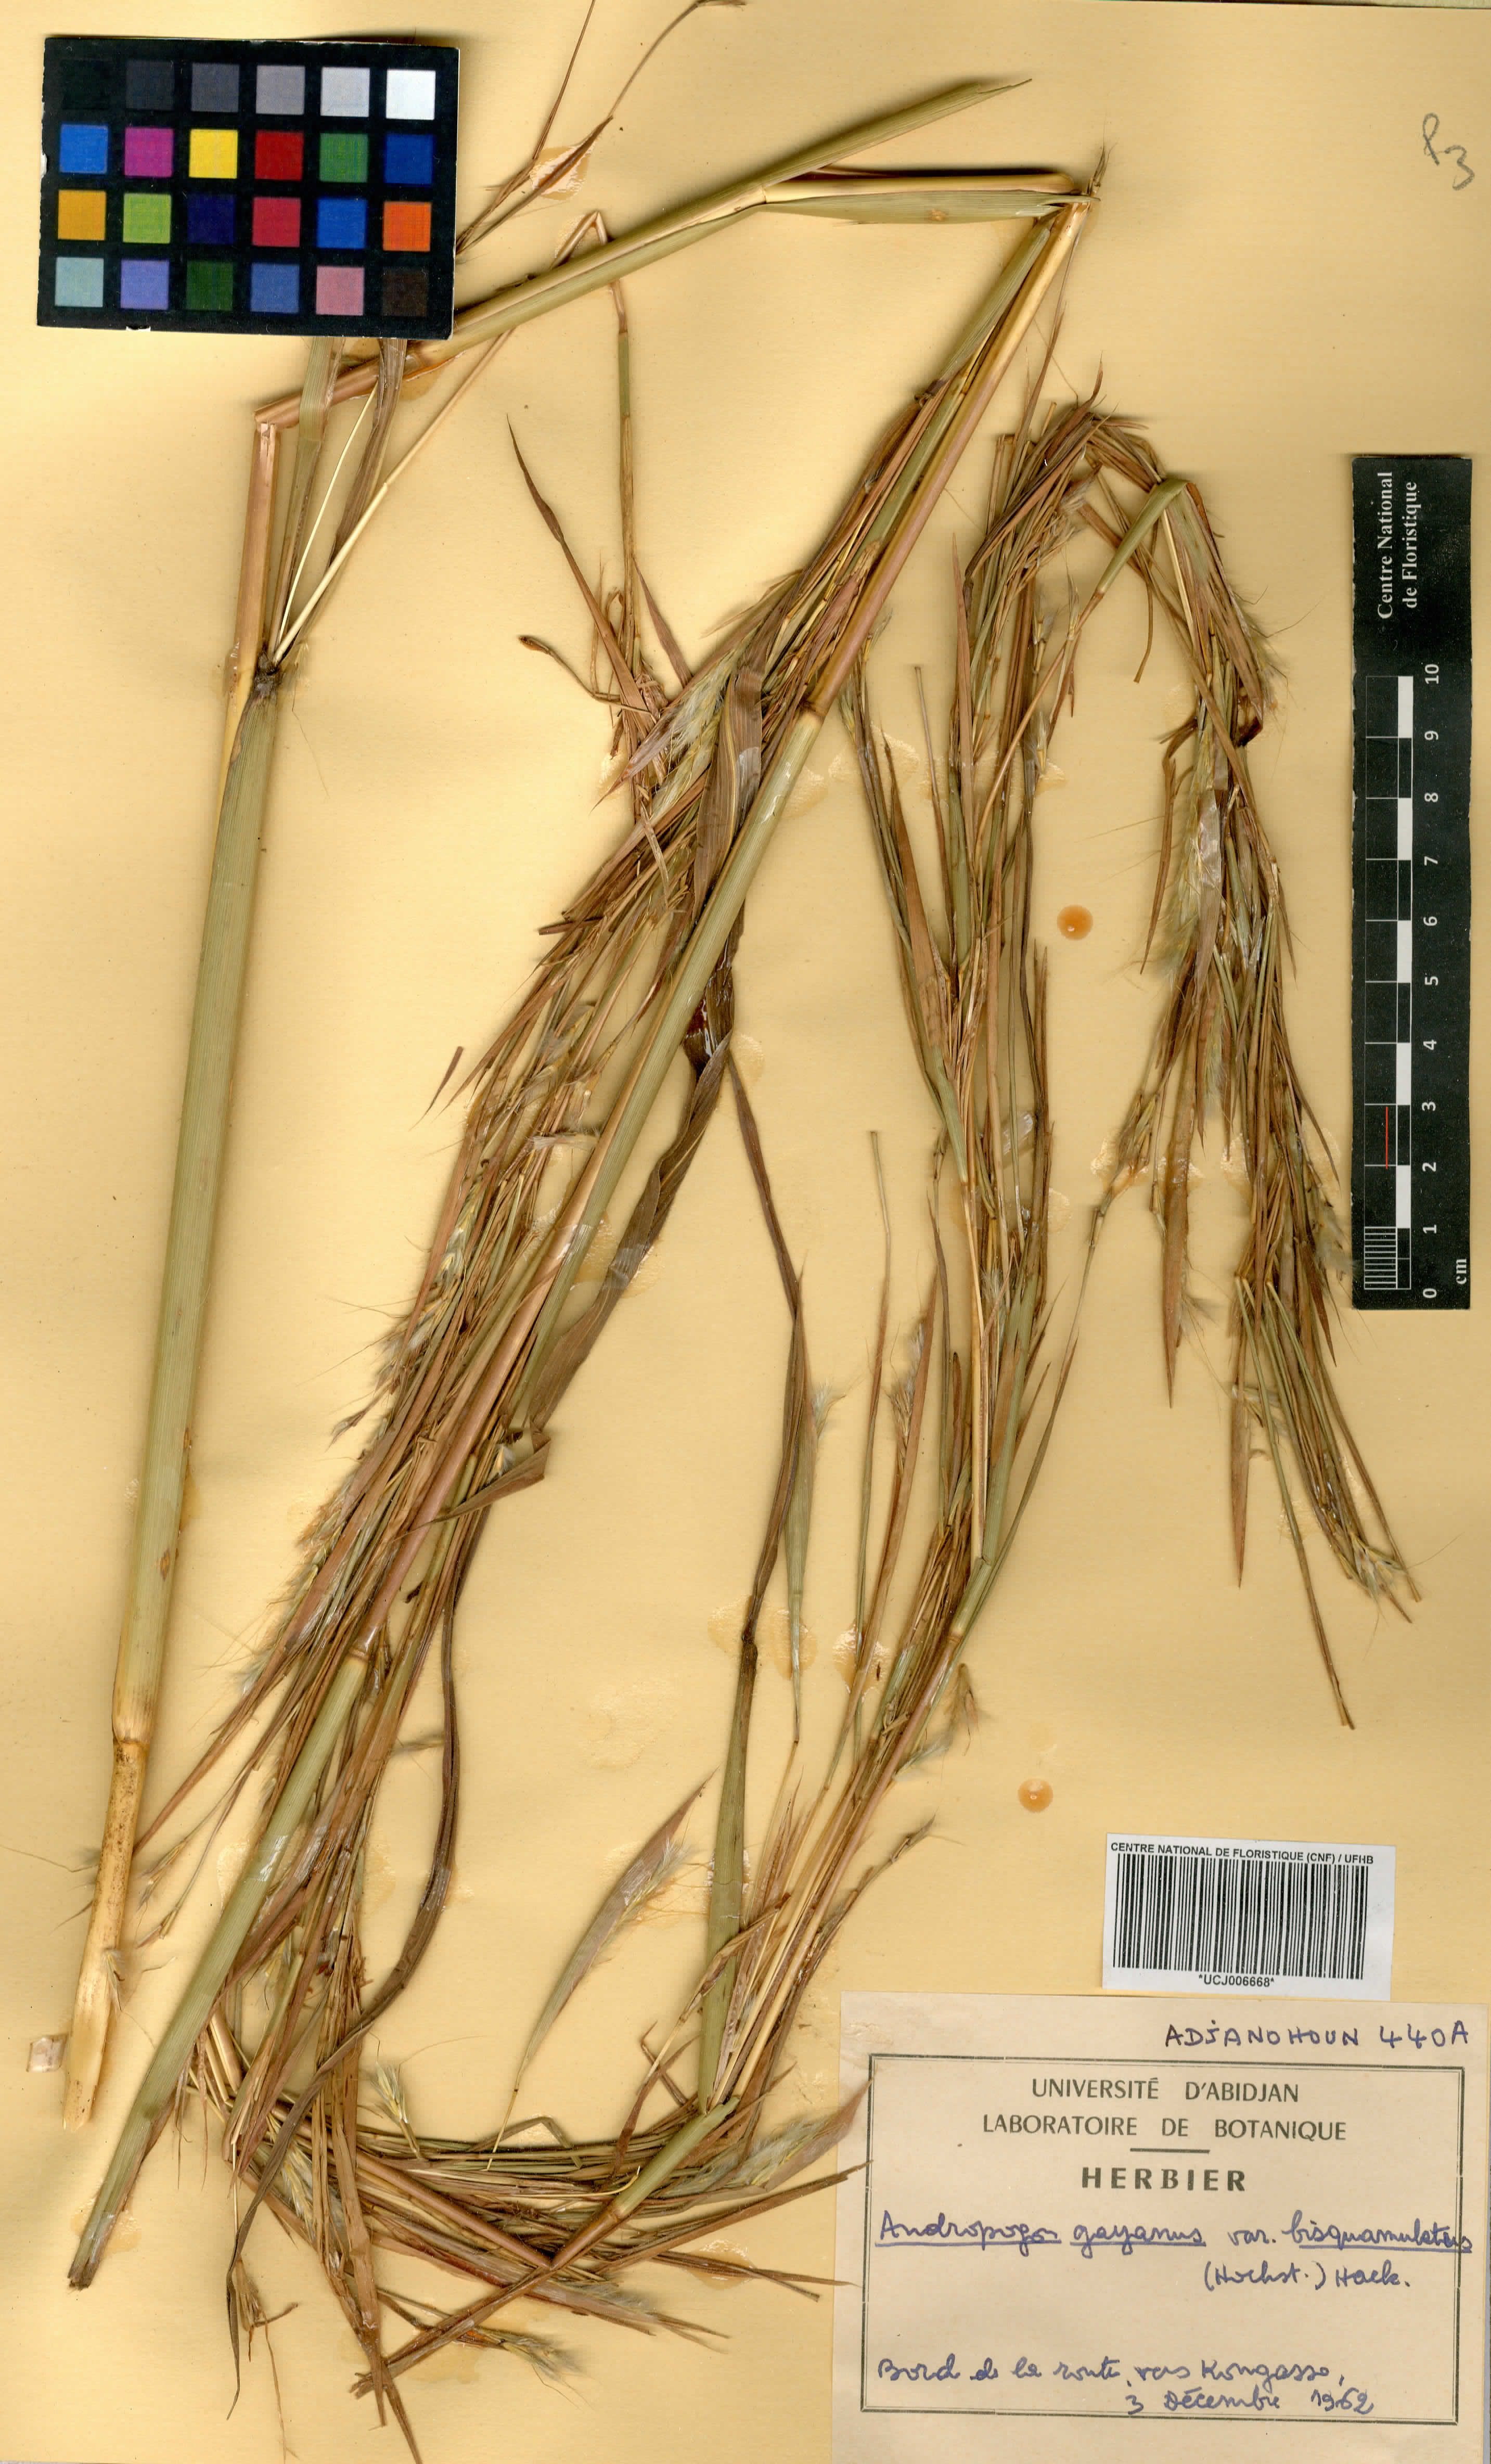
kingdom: Plantae
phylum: Tracheophyta
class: Liliopsida
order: Poales
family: Poaceae
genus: Andropogon
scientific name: Andropogon gayanus
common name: Tambuki grass
